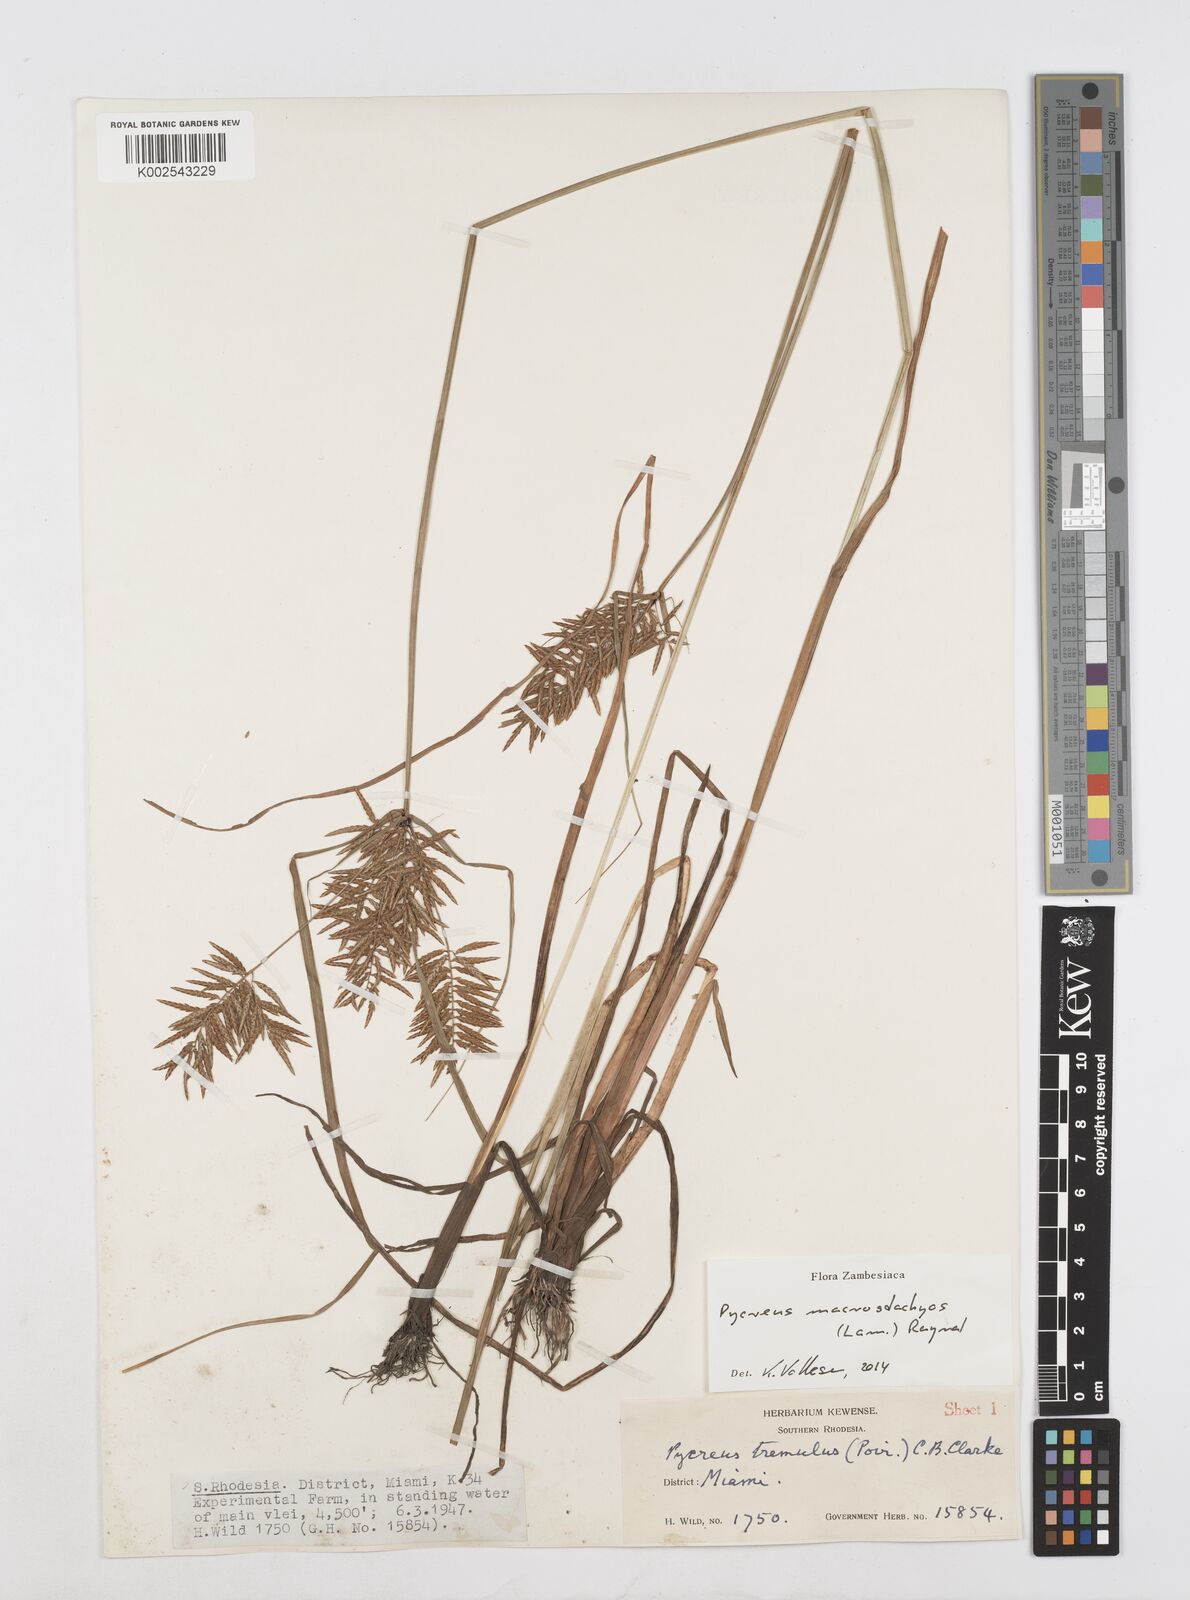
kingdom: Plantae
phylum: Tracheophyta
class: Liliopsida
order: Poales
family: Cyperaceae
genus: Cyperus
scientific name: Cyperus macrostachyos
